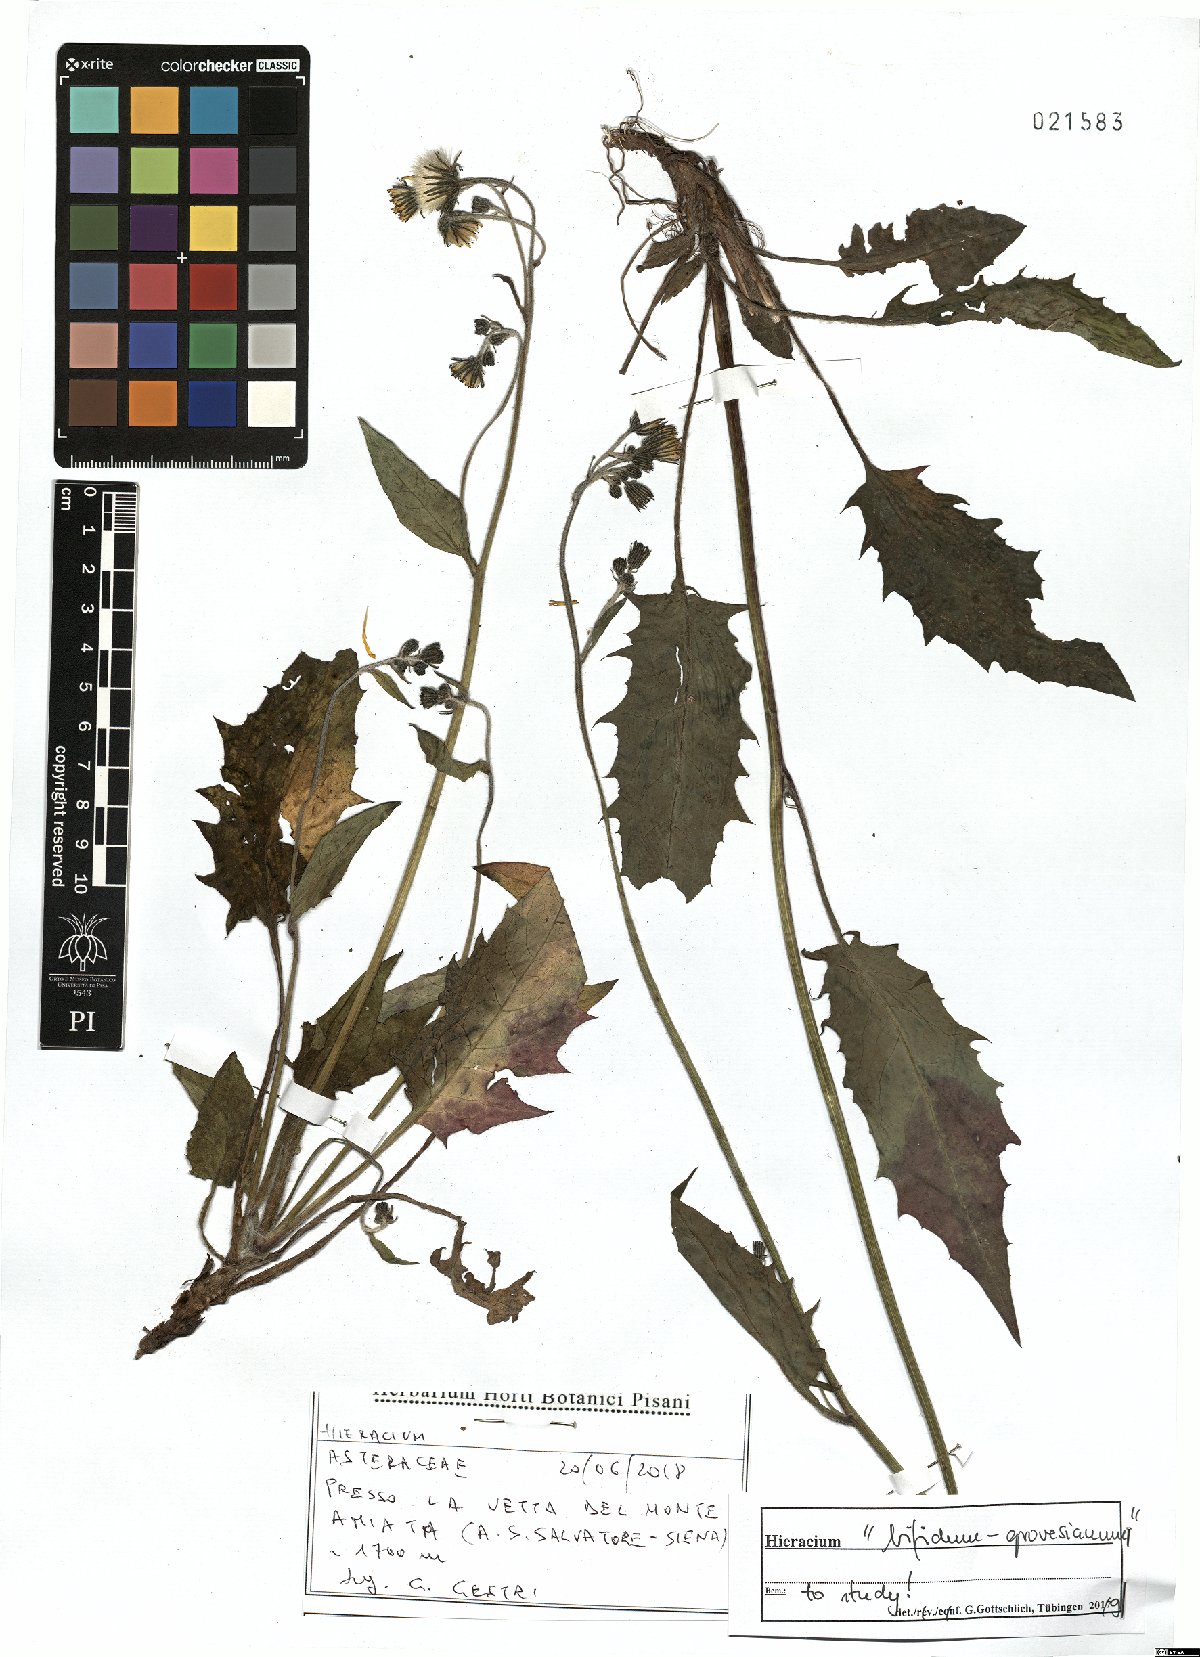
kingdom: Plantae
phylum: Tracheophyta
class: Magnoliopsida
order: Asterales
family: Asteraceae
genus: Hieracium
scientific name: Hieracium
